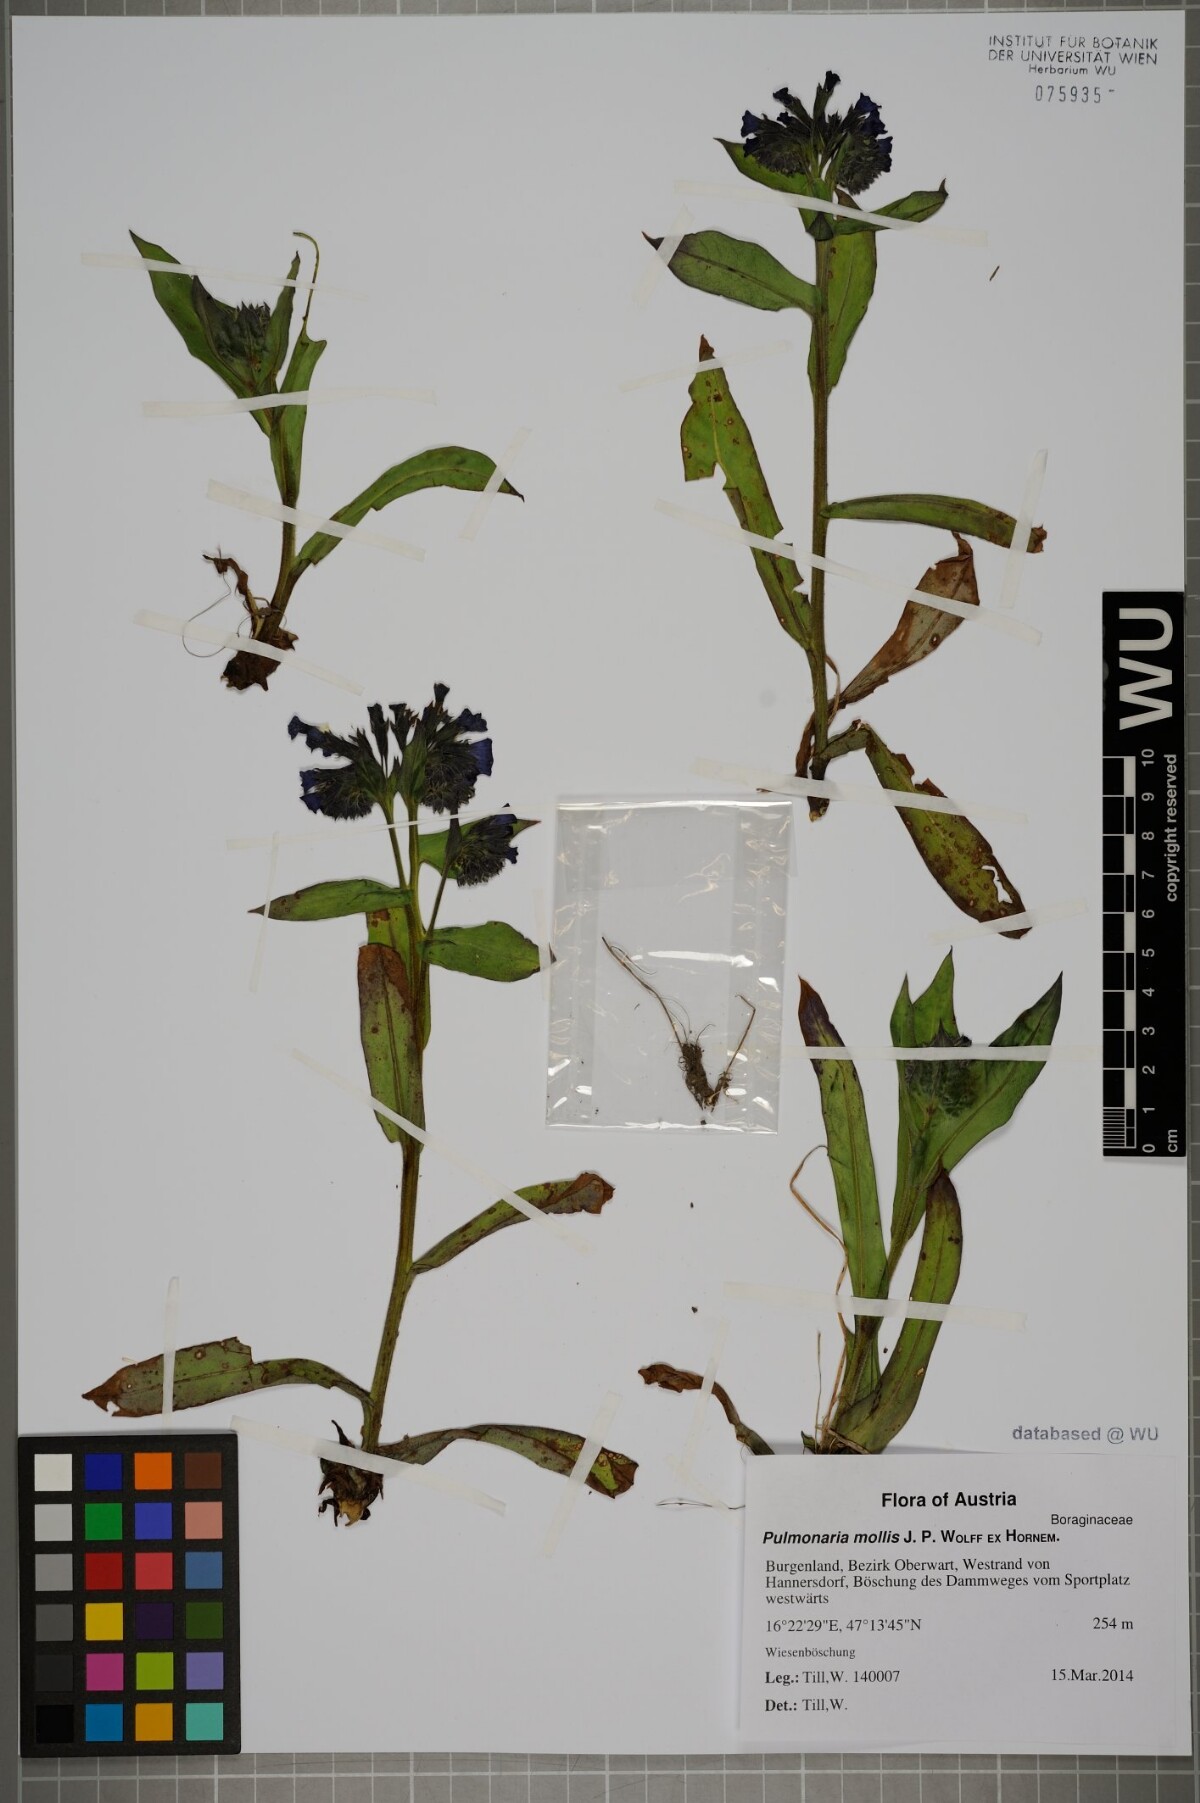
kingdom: Plantae
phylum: Tracheophyta
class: Magnoliopsida
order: Boraginales
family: Boraginaceae
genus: Pulmonaria
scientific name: Pulmonaria mollis
